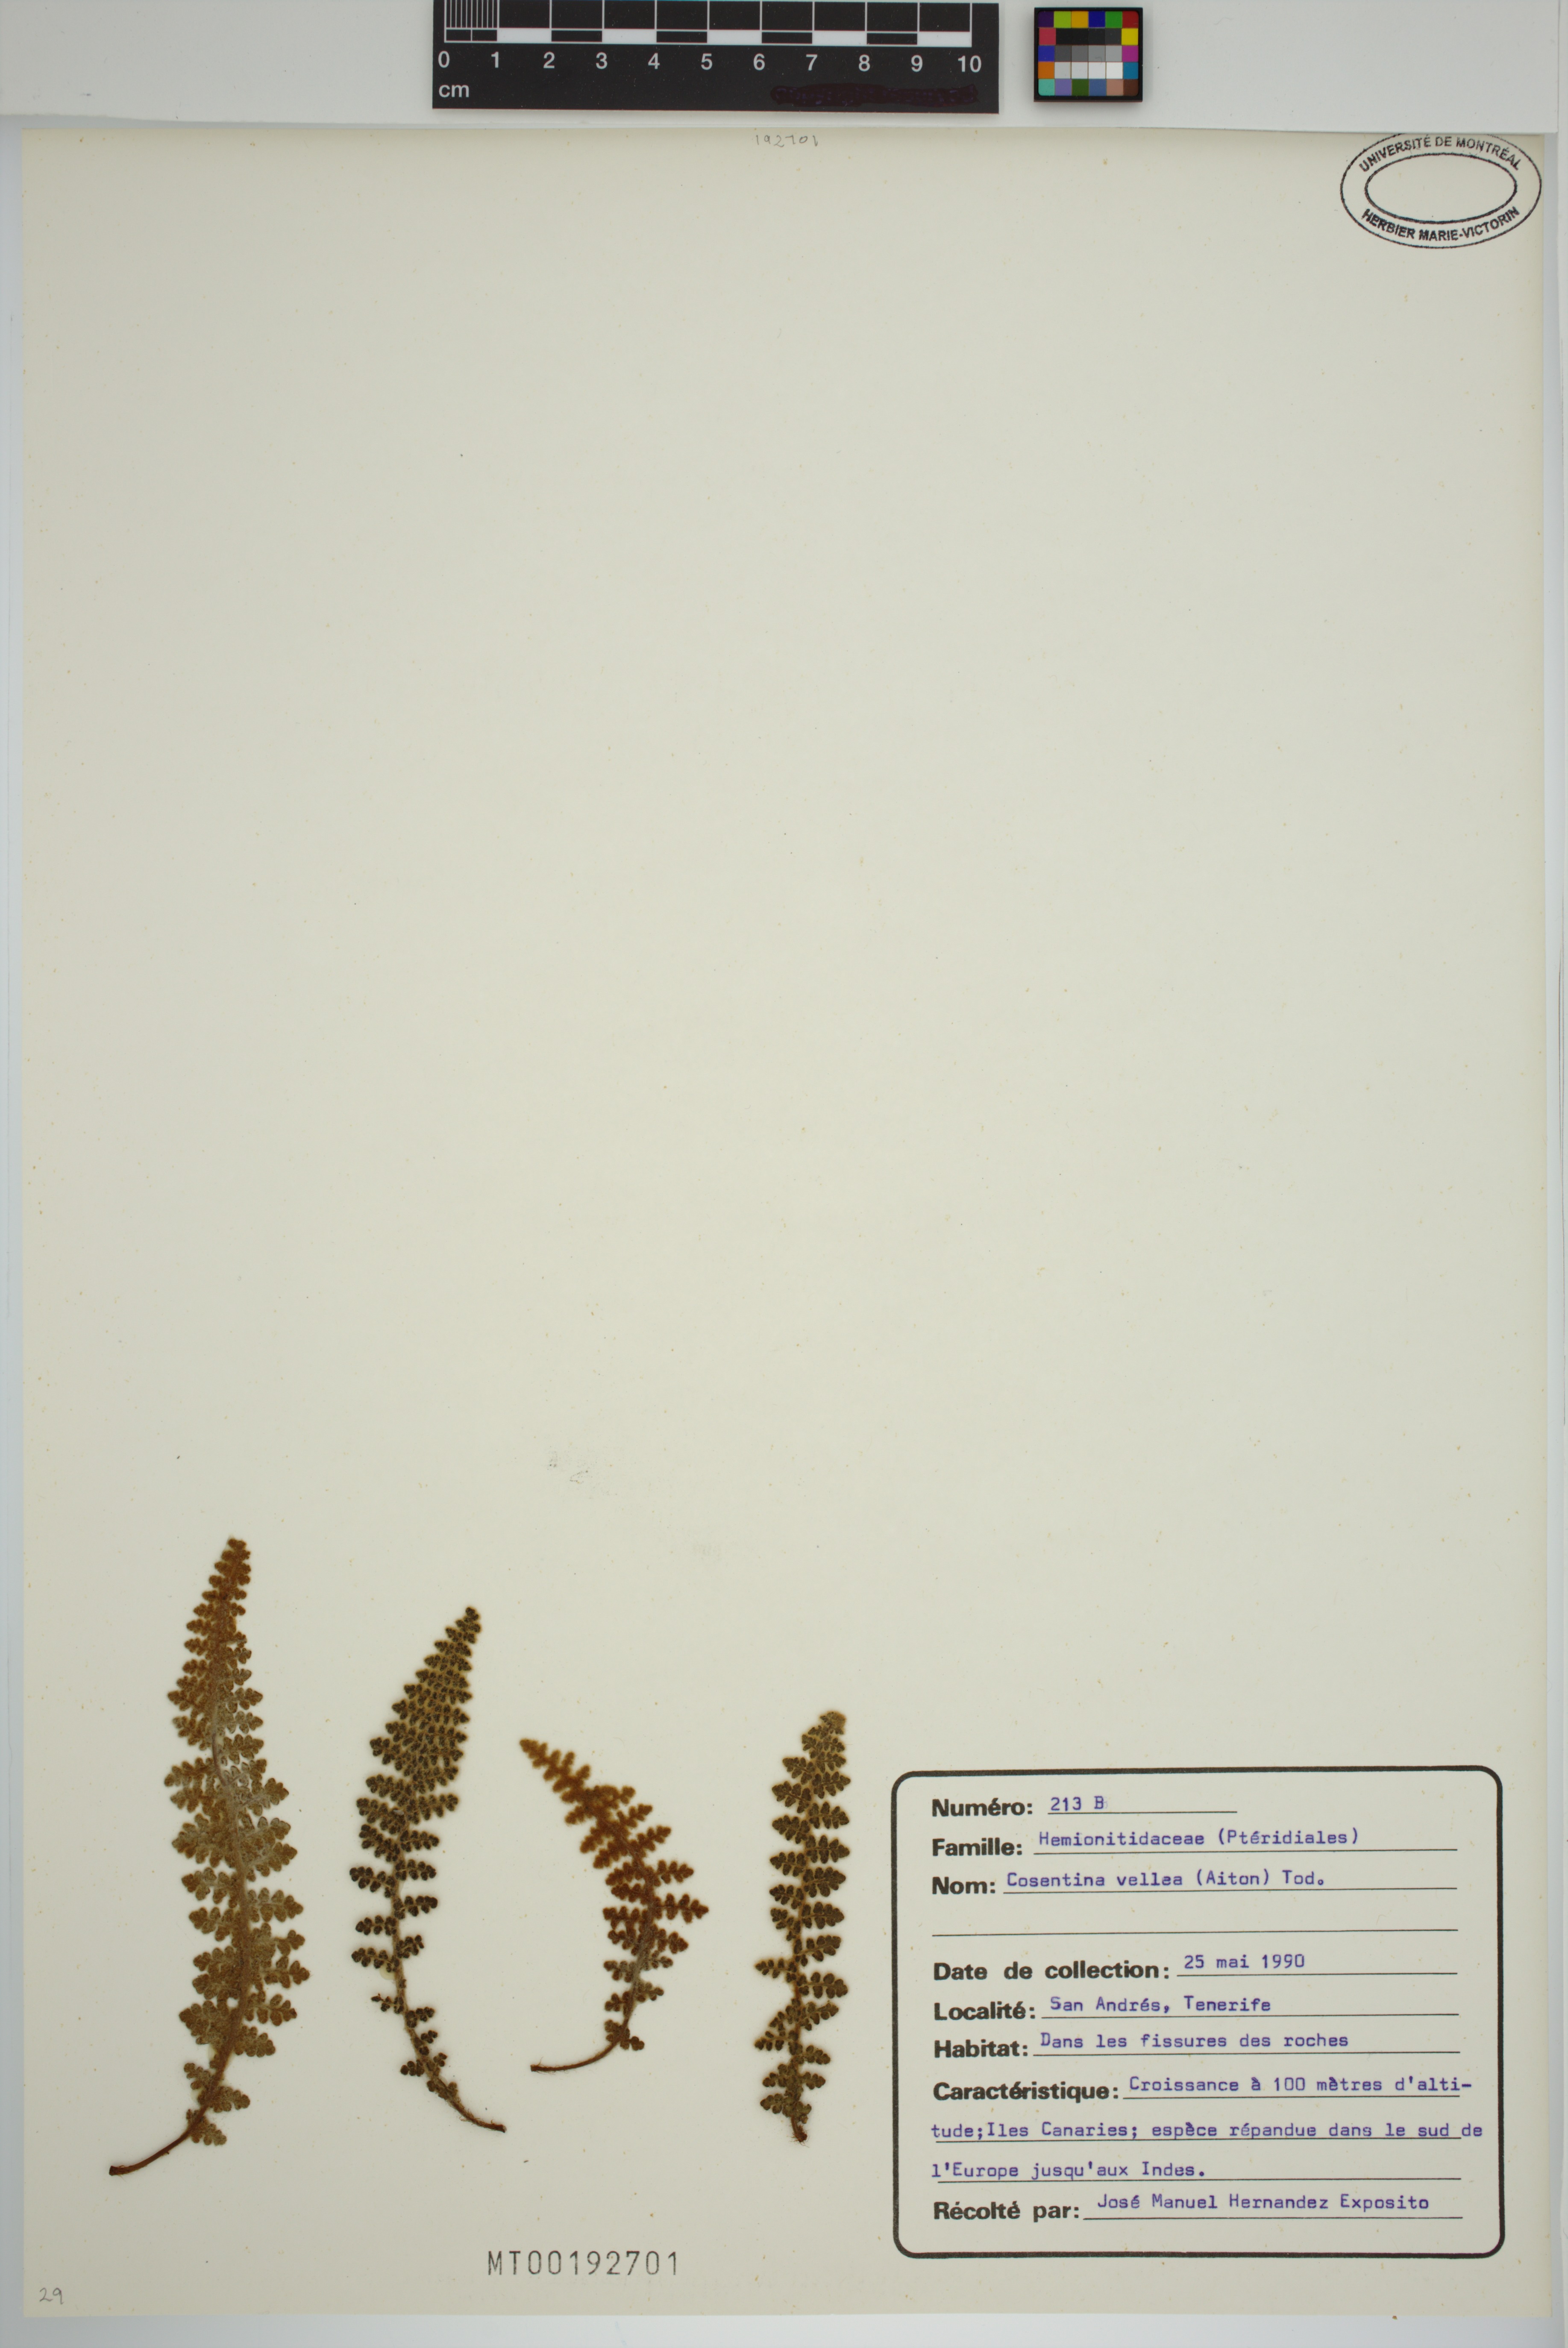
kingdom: Plantae
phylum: Tracheophyta
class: Polypodiopsida
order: Polypodiales
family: Pteridaceae
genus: Cosentinia
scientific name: Cosentinia vellea
